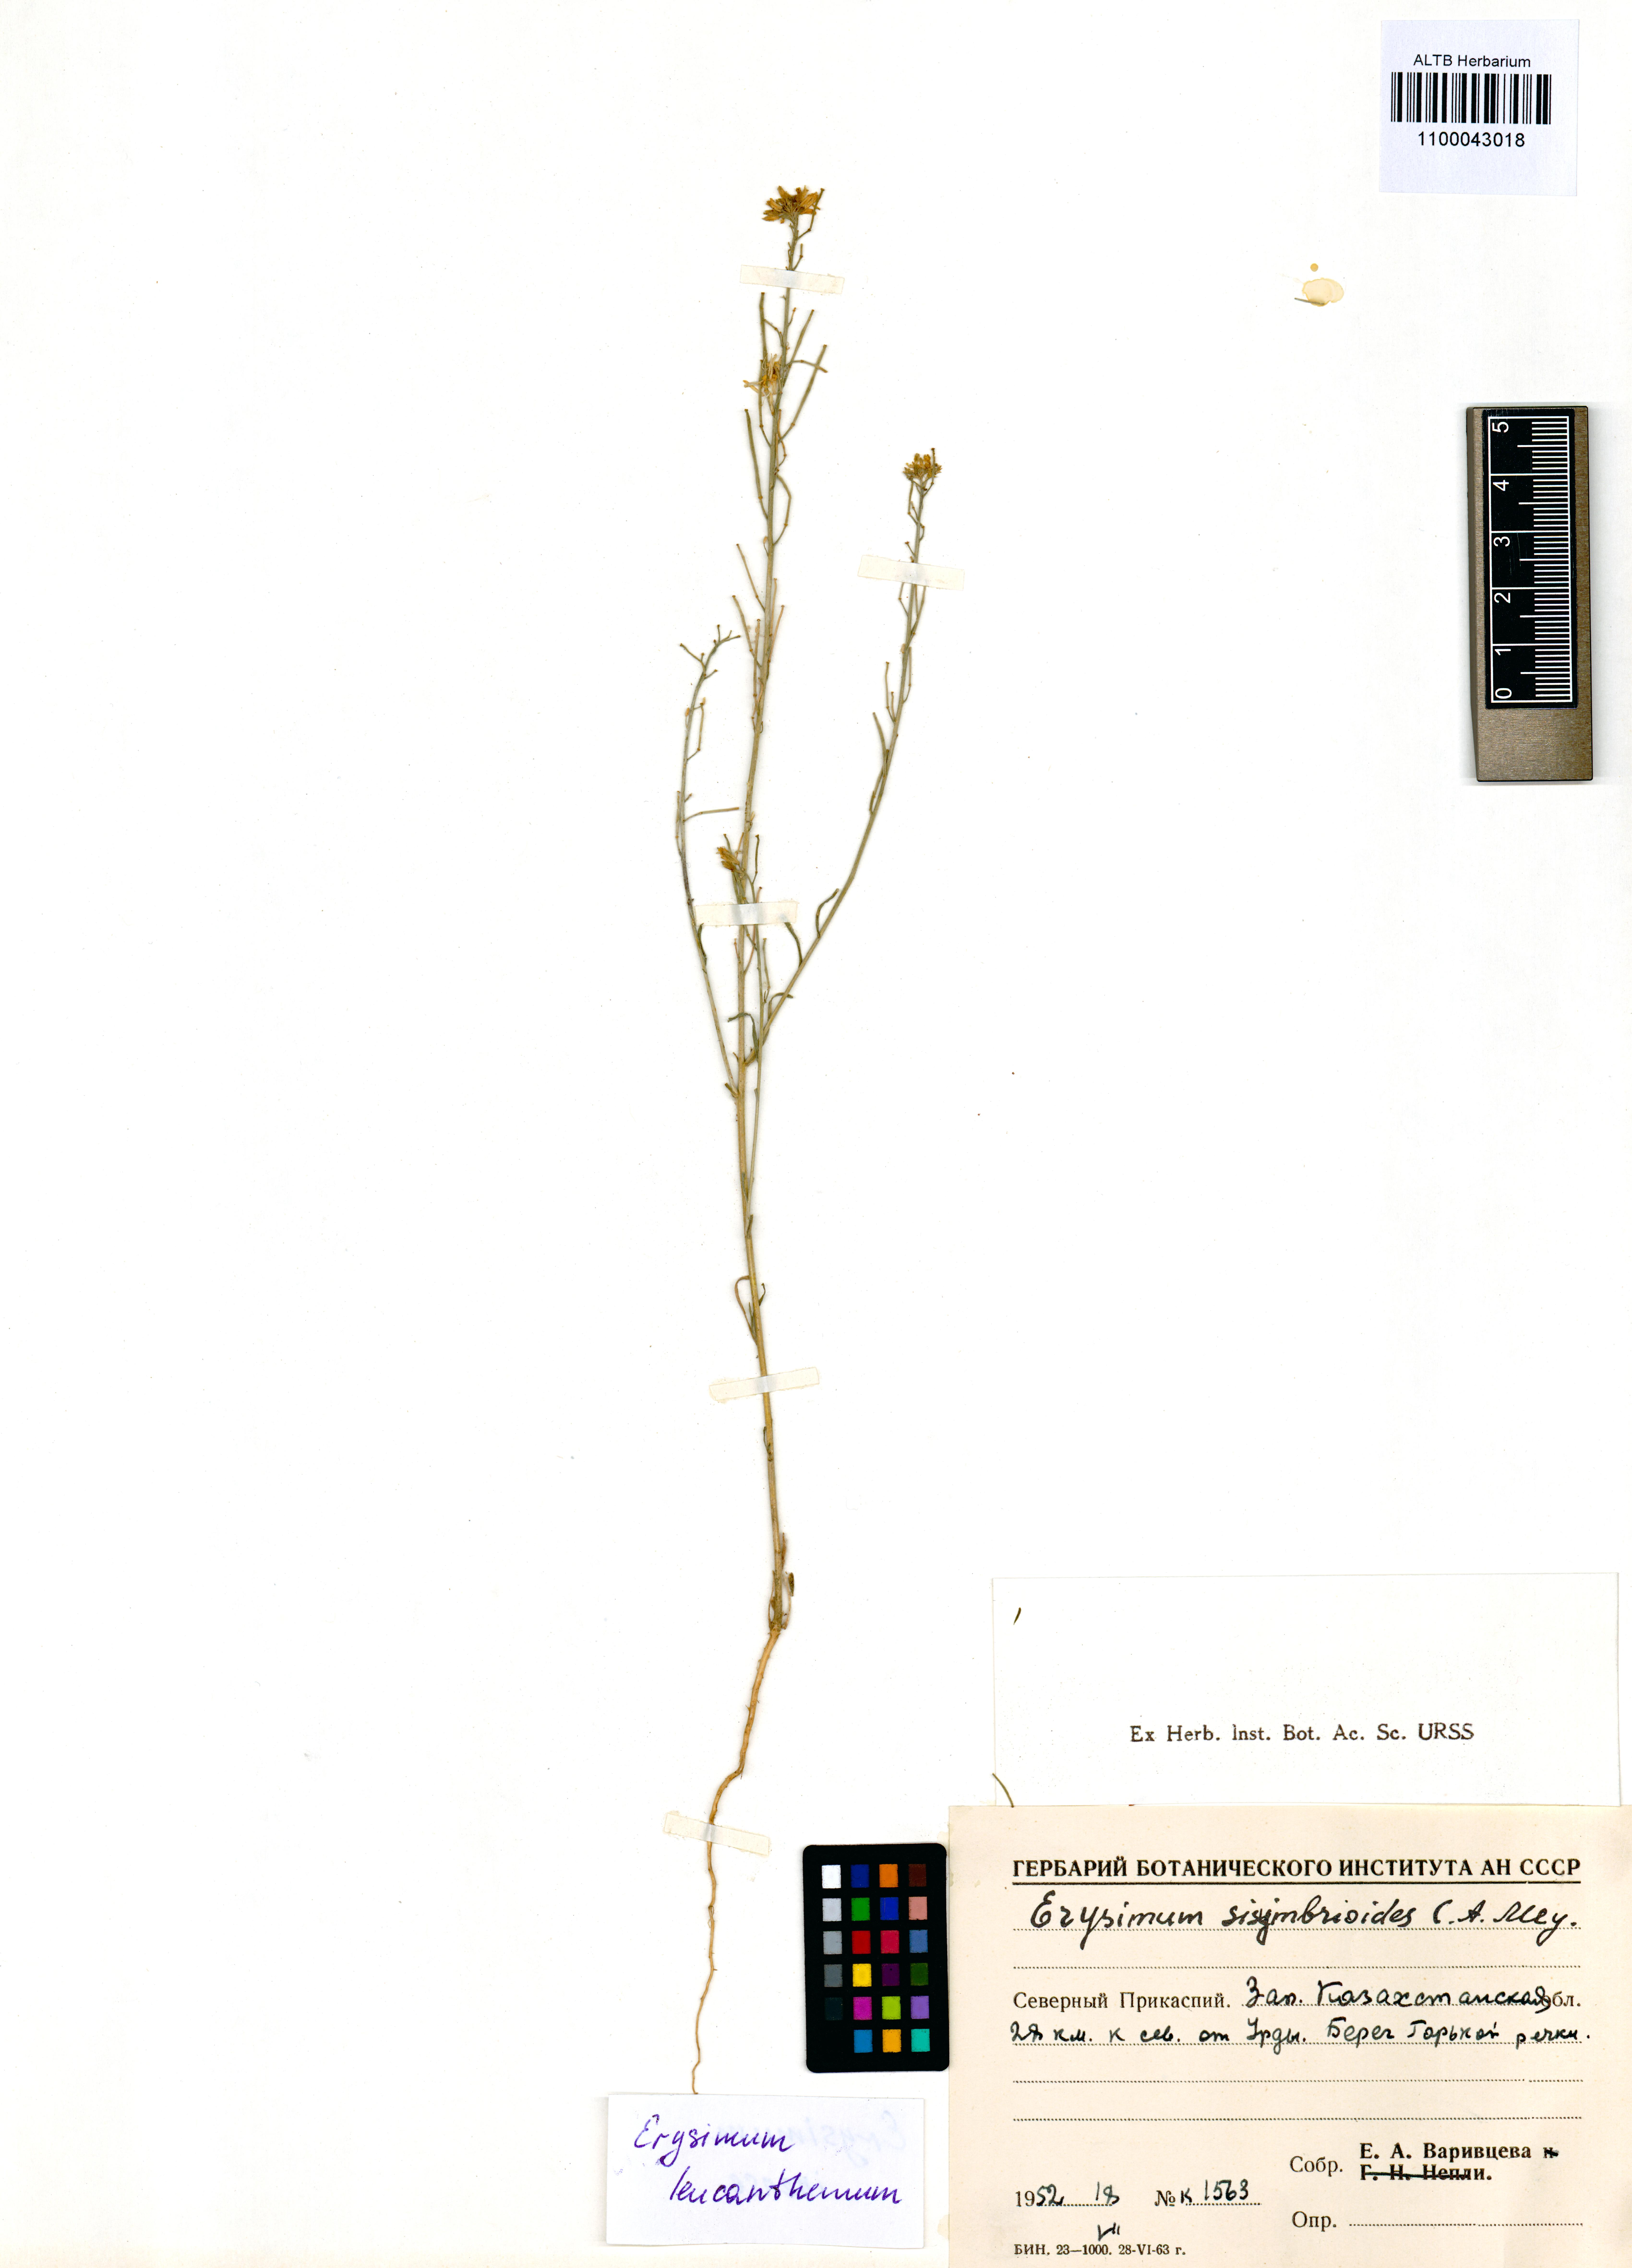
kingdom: Plantae
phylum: Tracheophyta
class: Magnoliopsida
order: Brassicales
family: Brassicaceae
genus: Erysimum
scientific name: Erysimum leucanthemum
